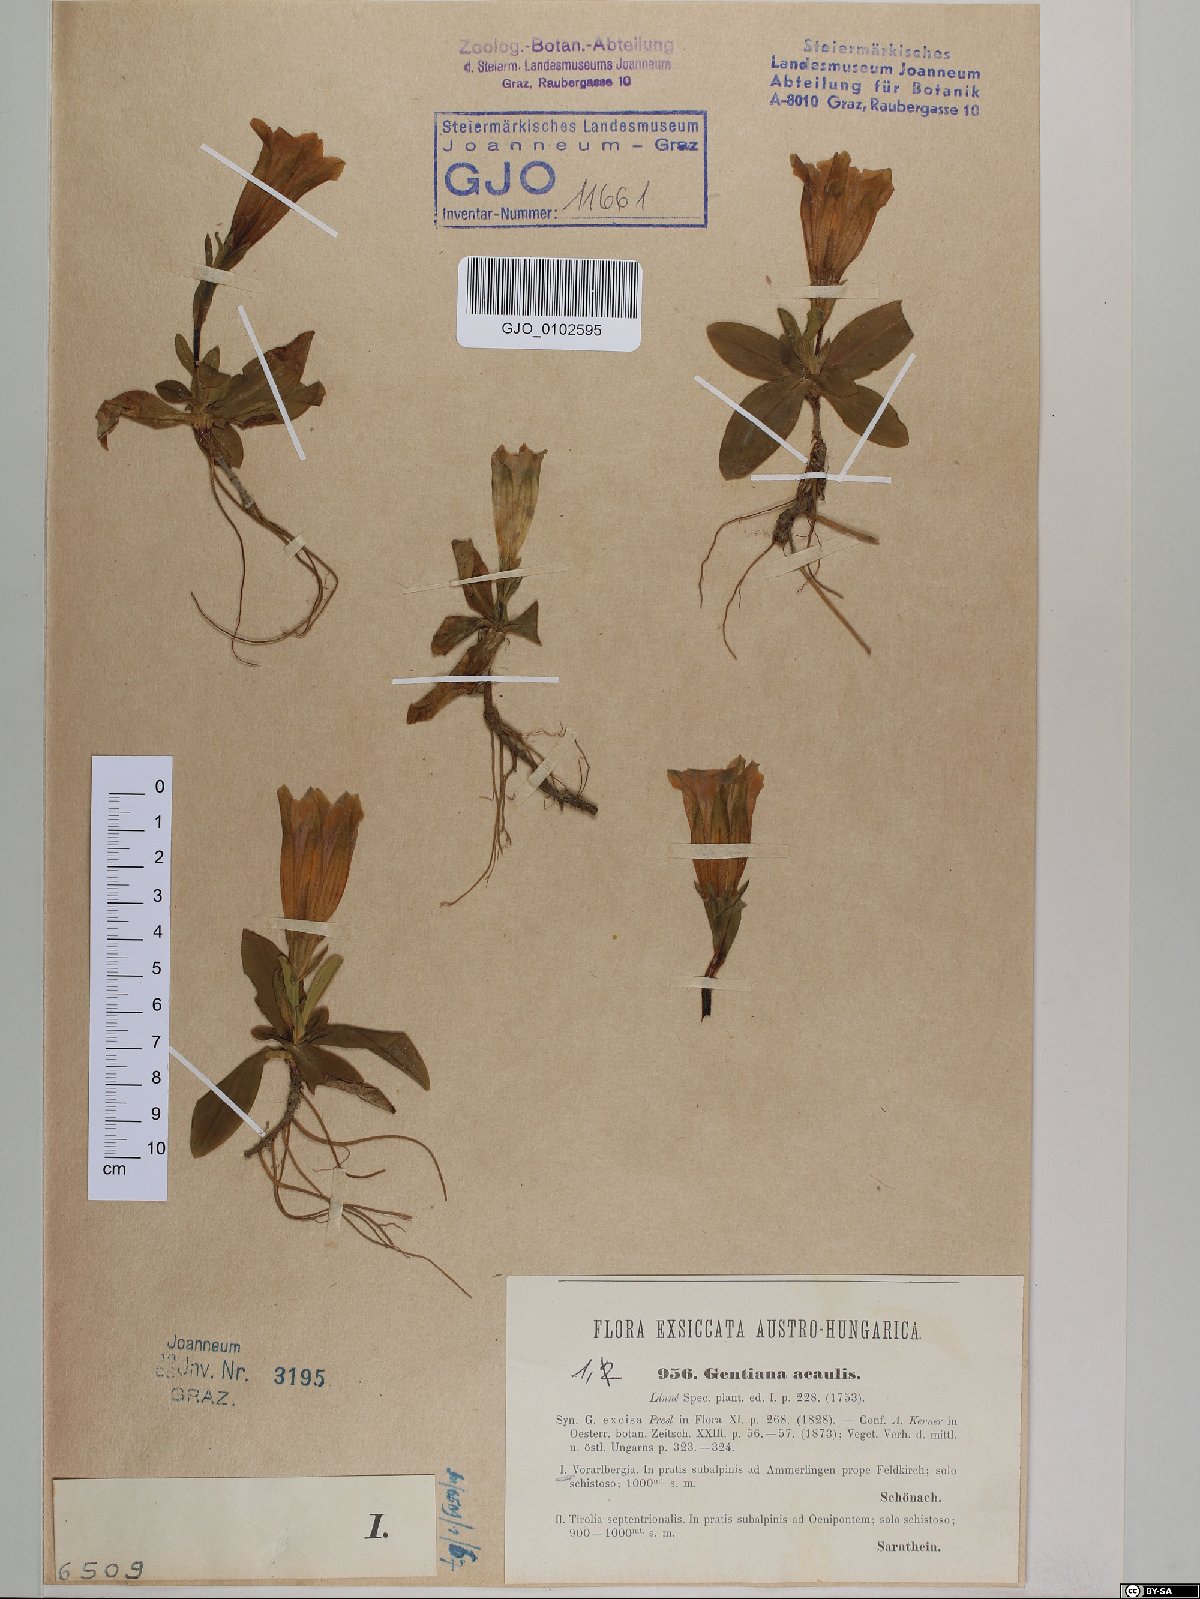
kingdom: Plantae
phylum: Tracheophyta
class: Magnoliopsida
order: Gentianales
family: Gentianaceae
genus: Gentiana
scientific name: Gentiana acaulis
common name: Trumpet gentian
